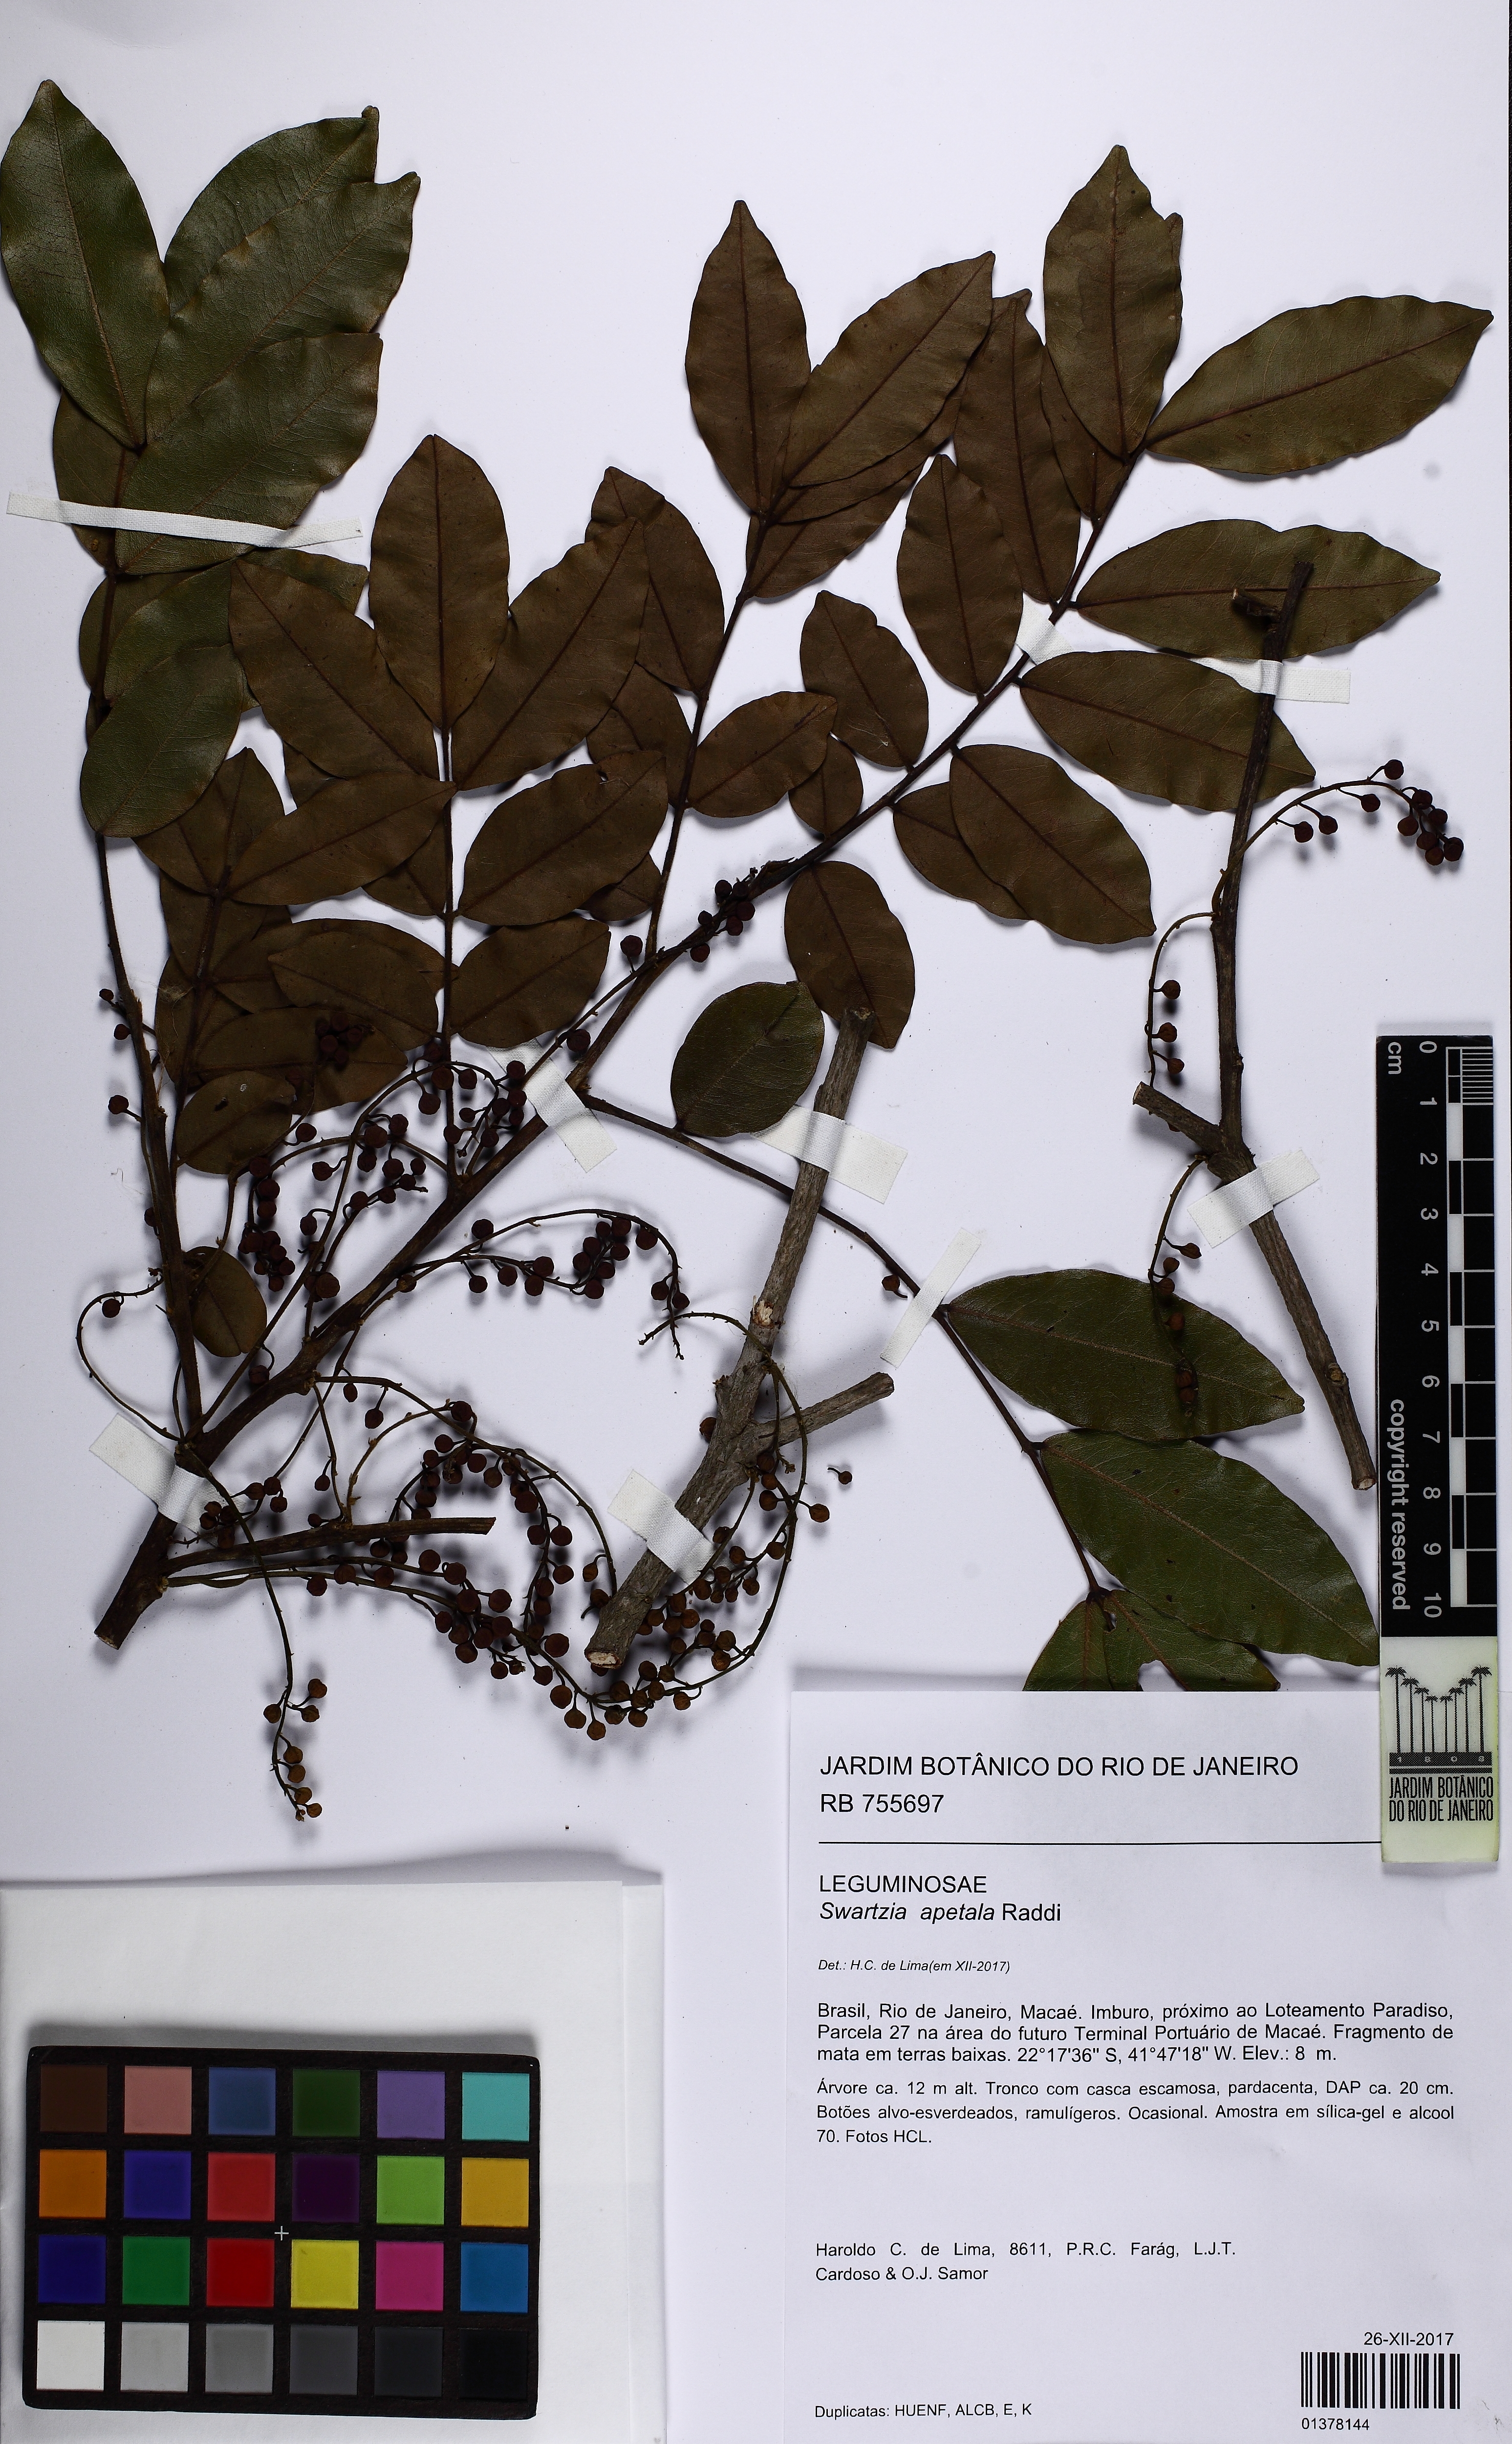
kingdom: Plantae
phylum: Tracheophyta
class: Magnoliopsida
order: Fabales
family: Fabaceae
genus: Swartzia
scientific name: Swartzia apetala
